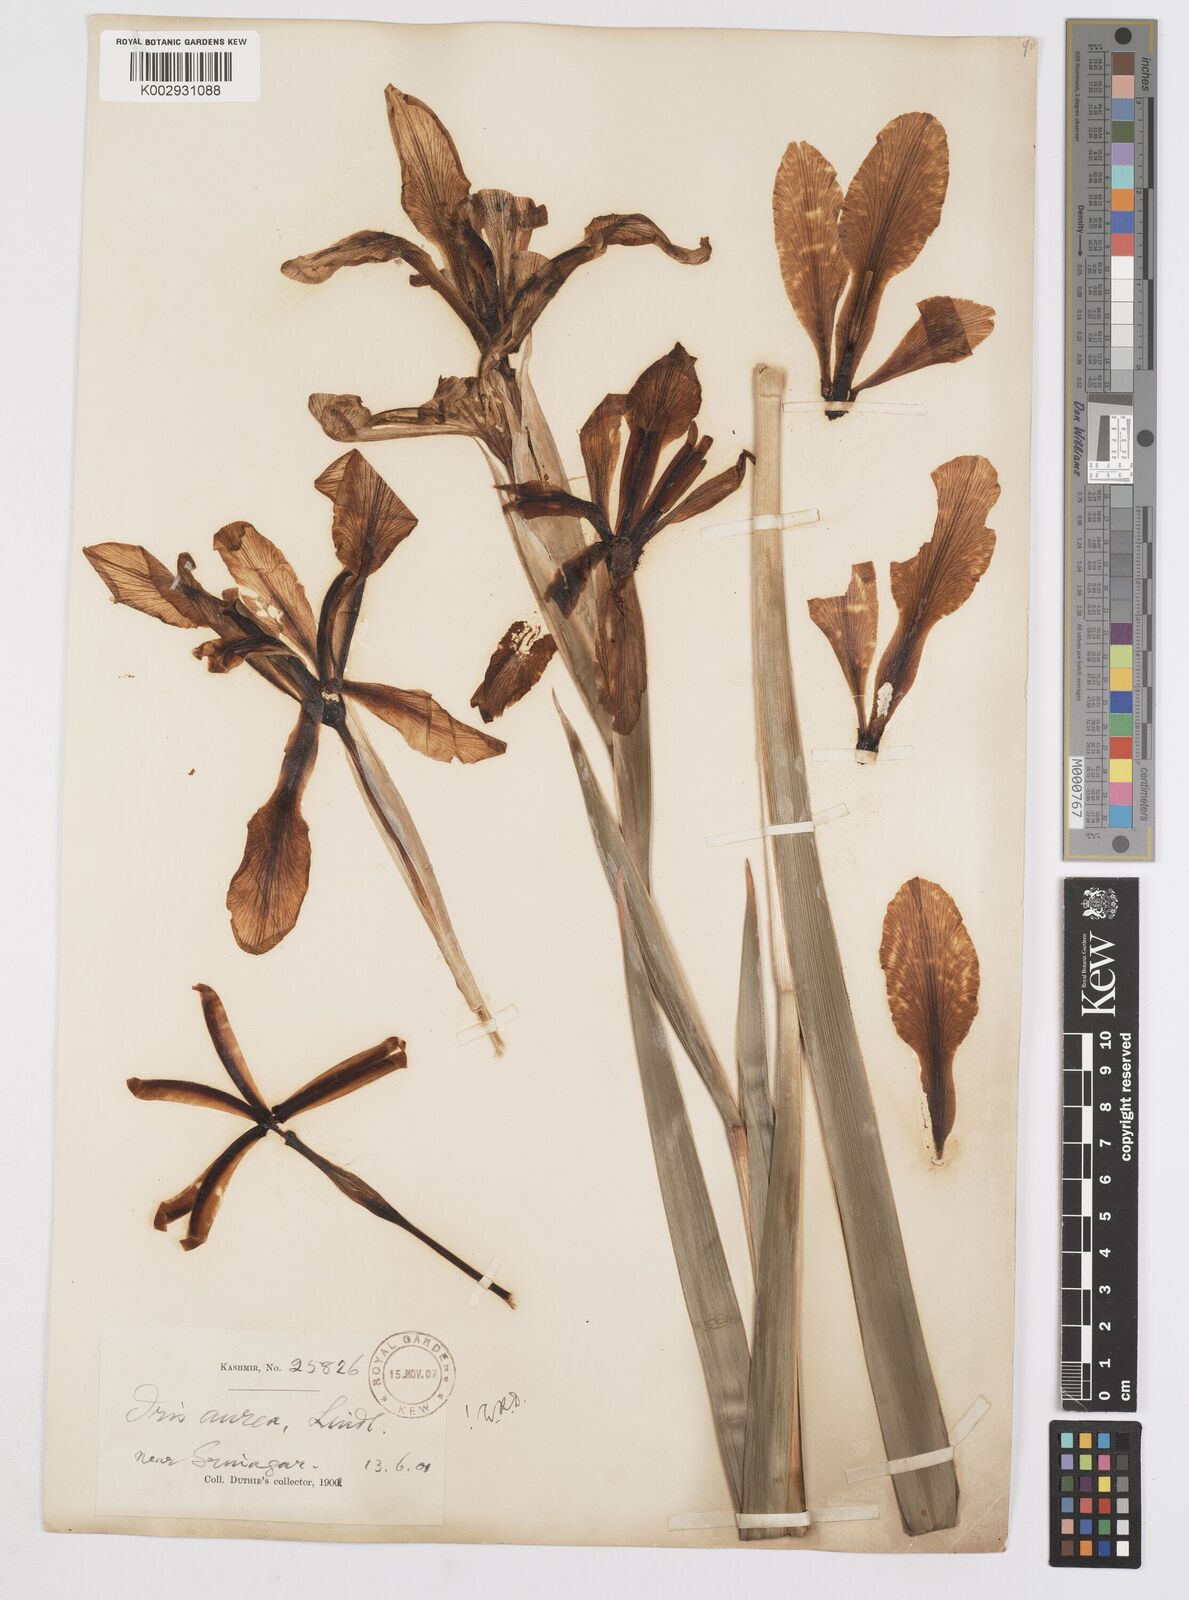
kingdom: Plantae
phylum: Tracheophyta
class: Liliopsida
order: Asparagales
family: Iridaceae
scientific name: Iridaceae
